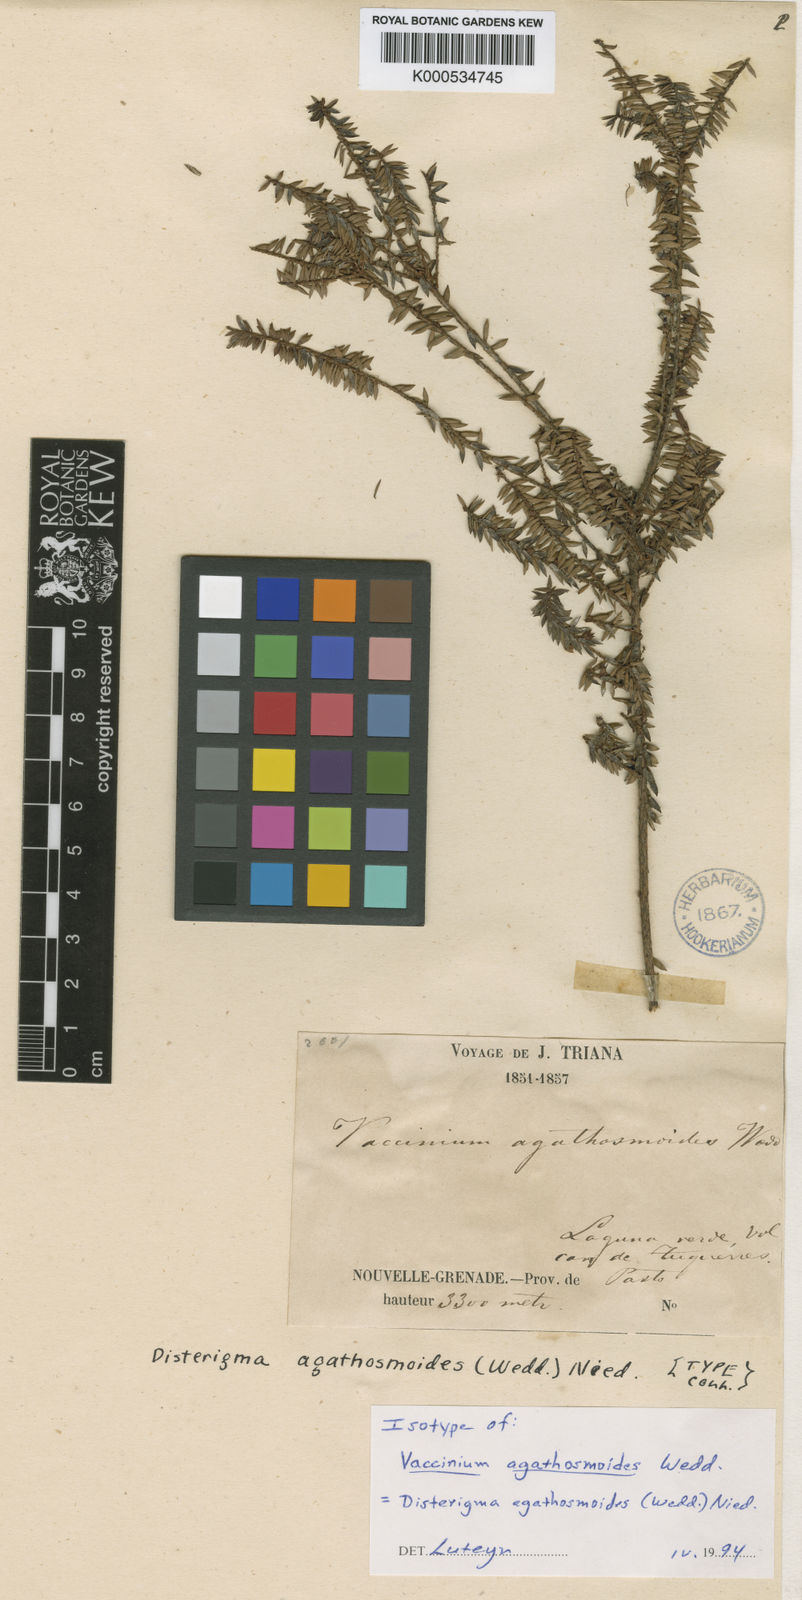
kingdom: Plantae
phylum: Tracheophyta
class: Magnoliopsida
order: Ericales
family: Ericaceae
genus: Disterigma
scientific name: Disterigma agathosmoides
